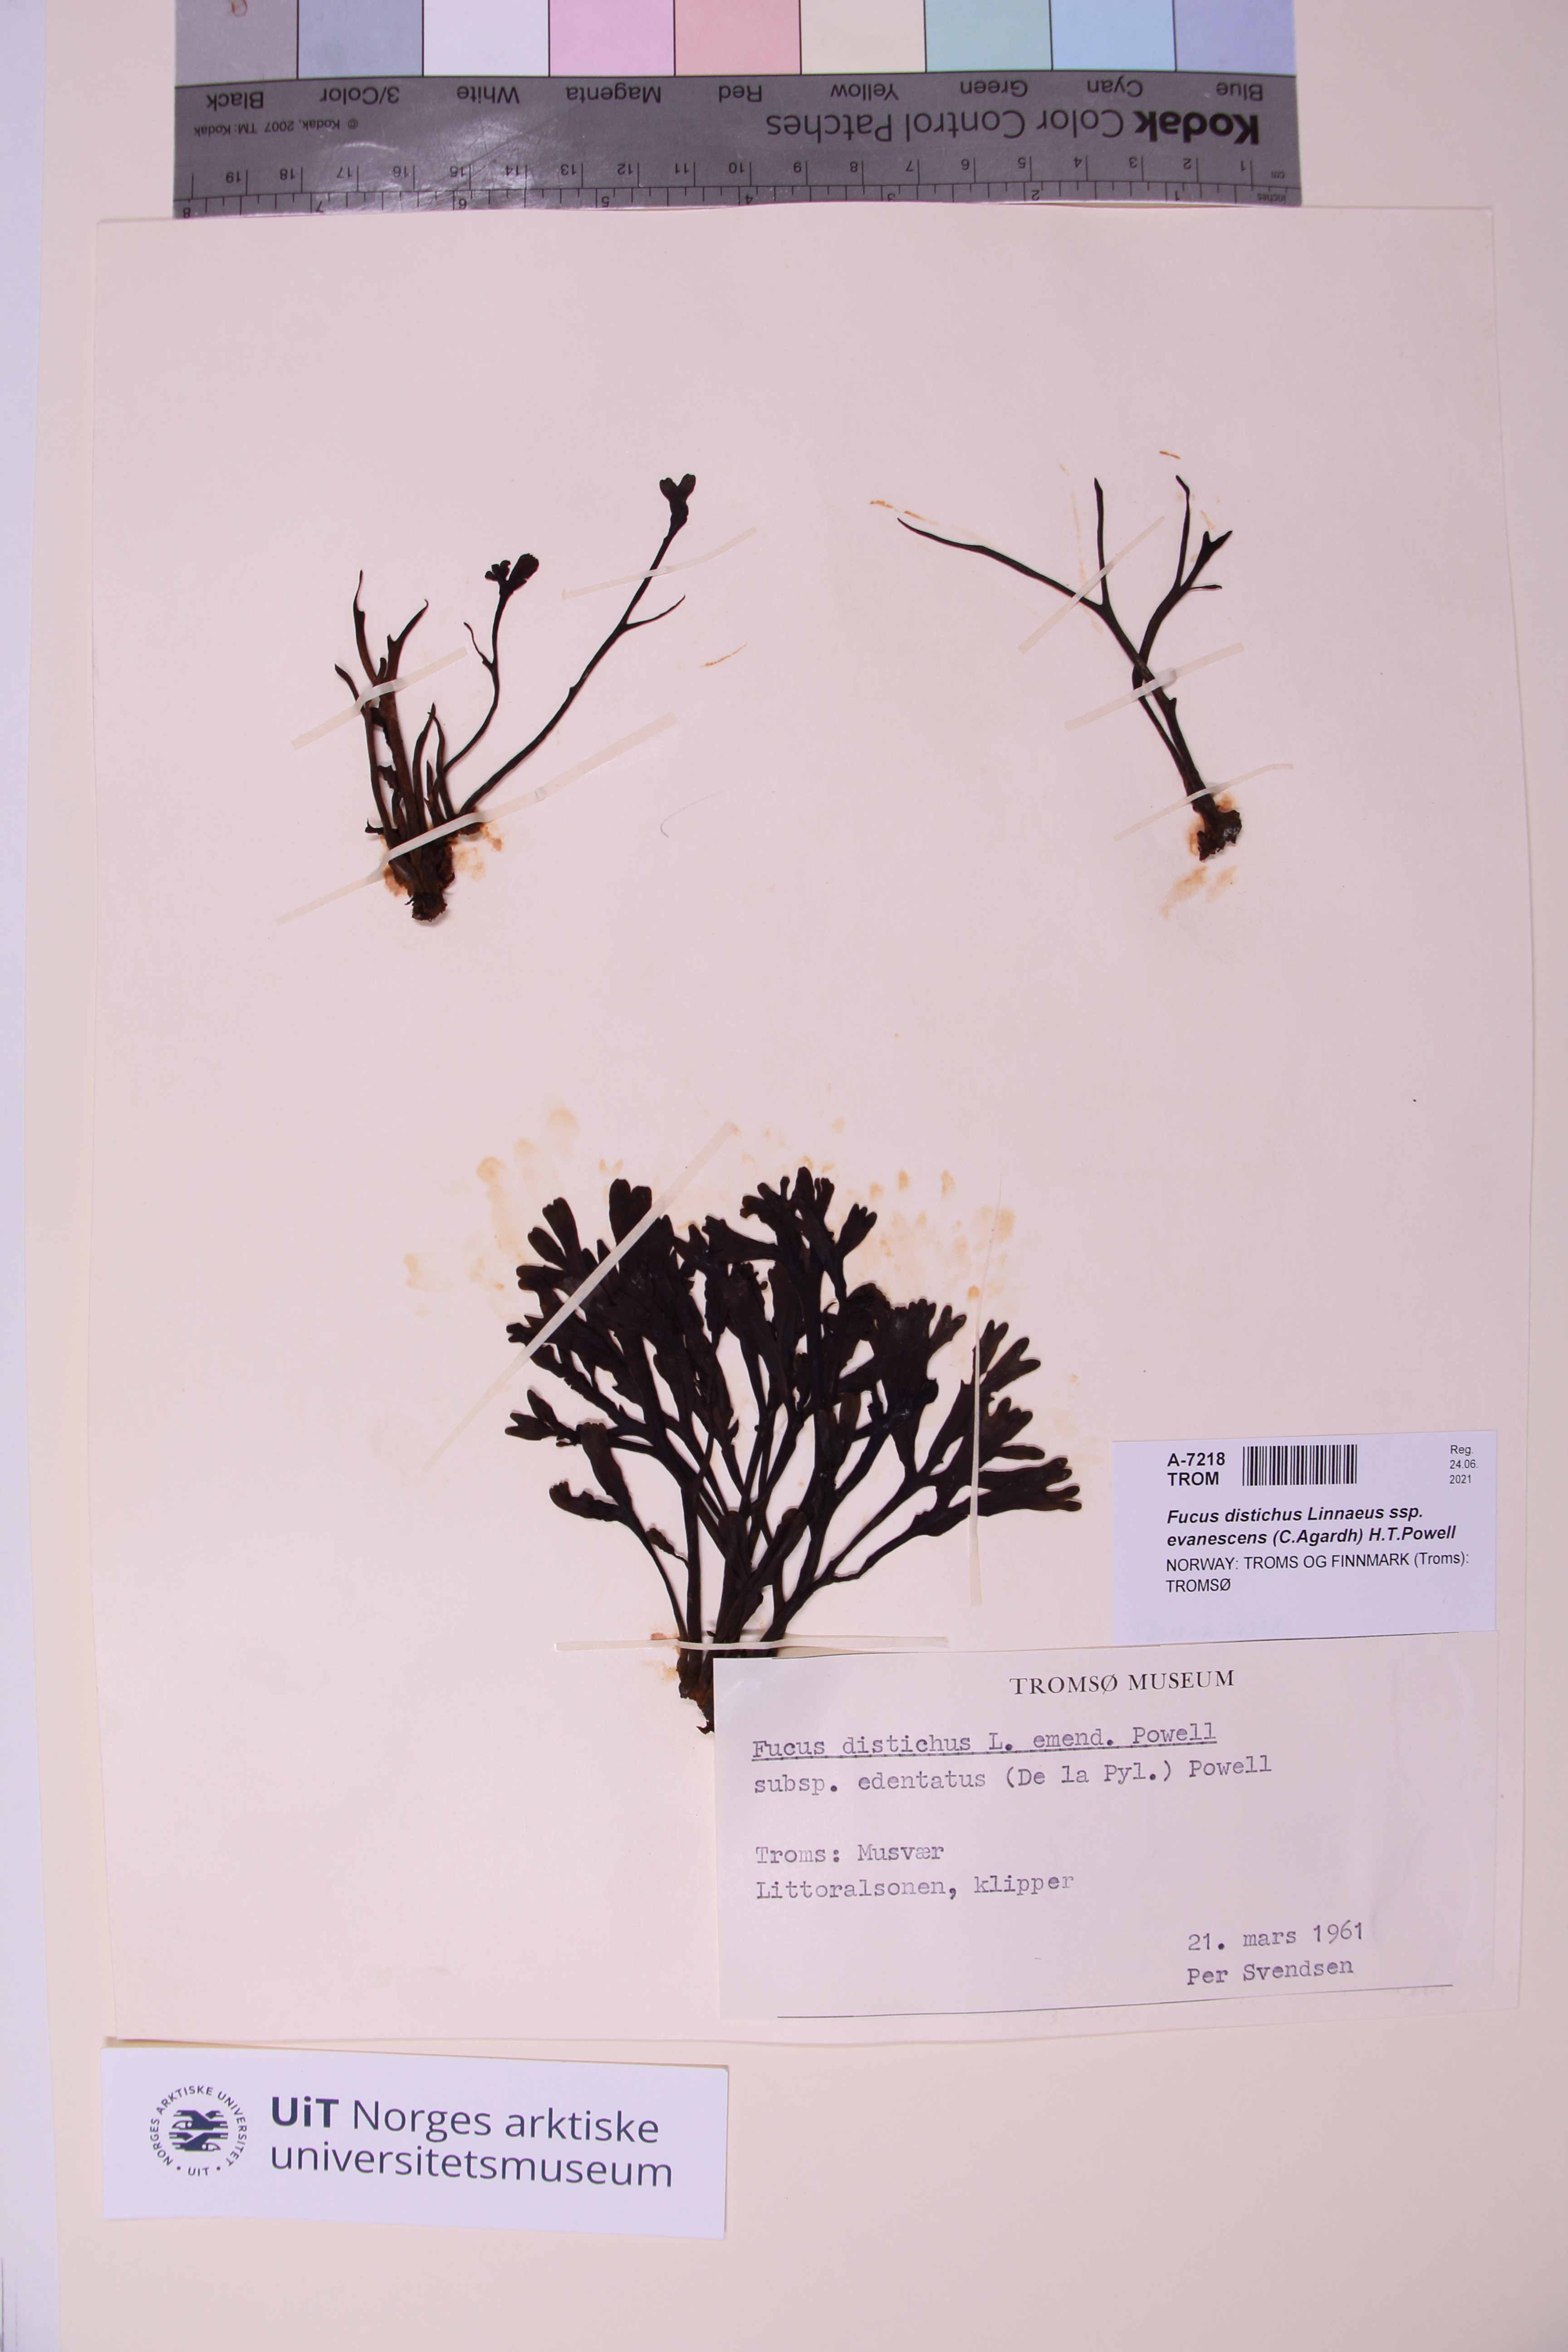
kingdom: Chromista
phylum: Ochrophyta
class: Phaeophyceae
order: Fucales
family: Fucaceae
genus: Fucus
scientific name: Fucus evanescens
